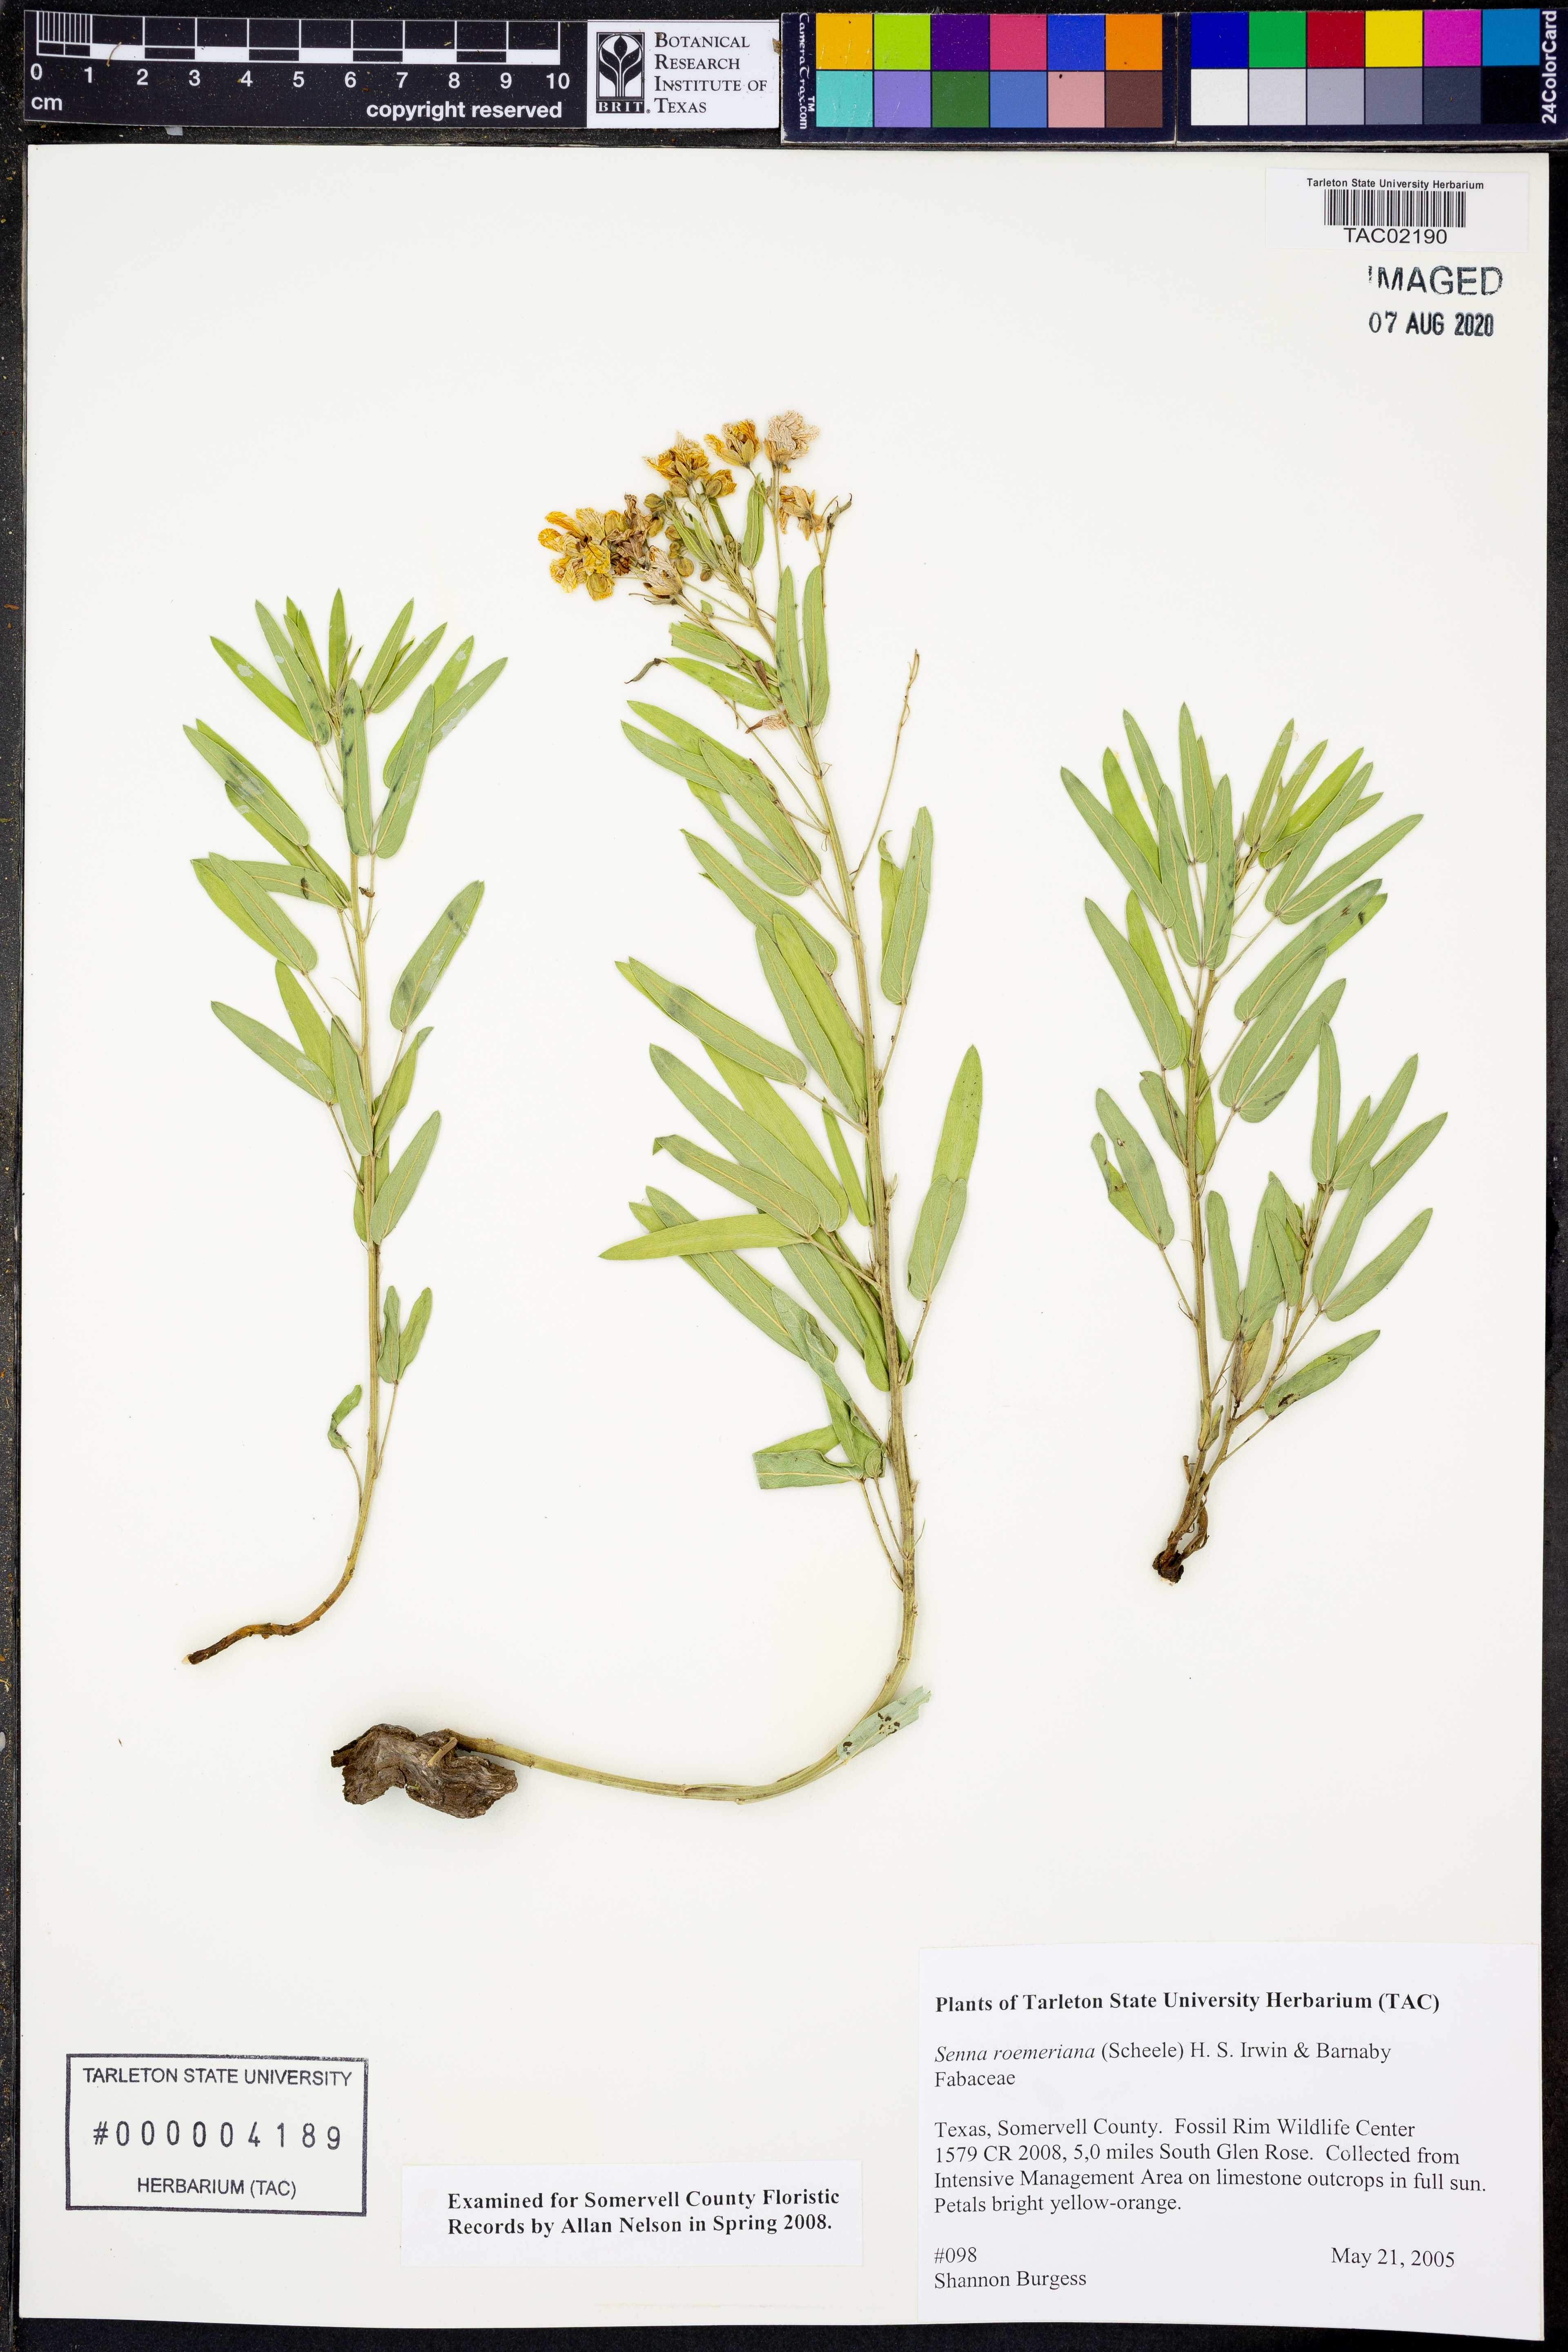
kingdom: Plantae
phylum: Tracheophyta
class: Magnoliopsida
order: Fabales
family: Fabaceae
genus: Senna
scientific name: Senna roemeriana
